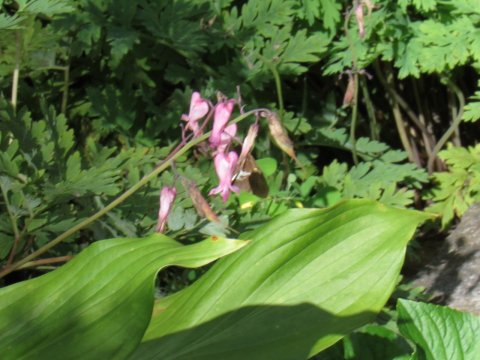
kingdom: Animalia
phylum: Arthropoda
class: Insecta
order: Lepidoptera
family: Hesperiidae
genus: Epargyreus
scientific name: Epargyreus clarus
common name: Silver-spotted Skipper
